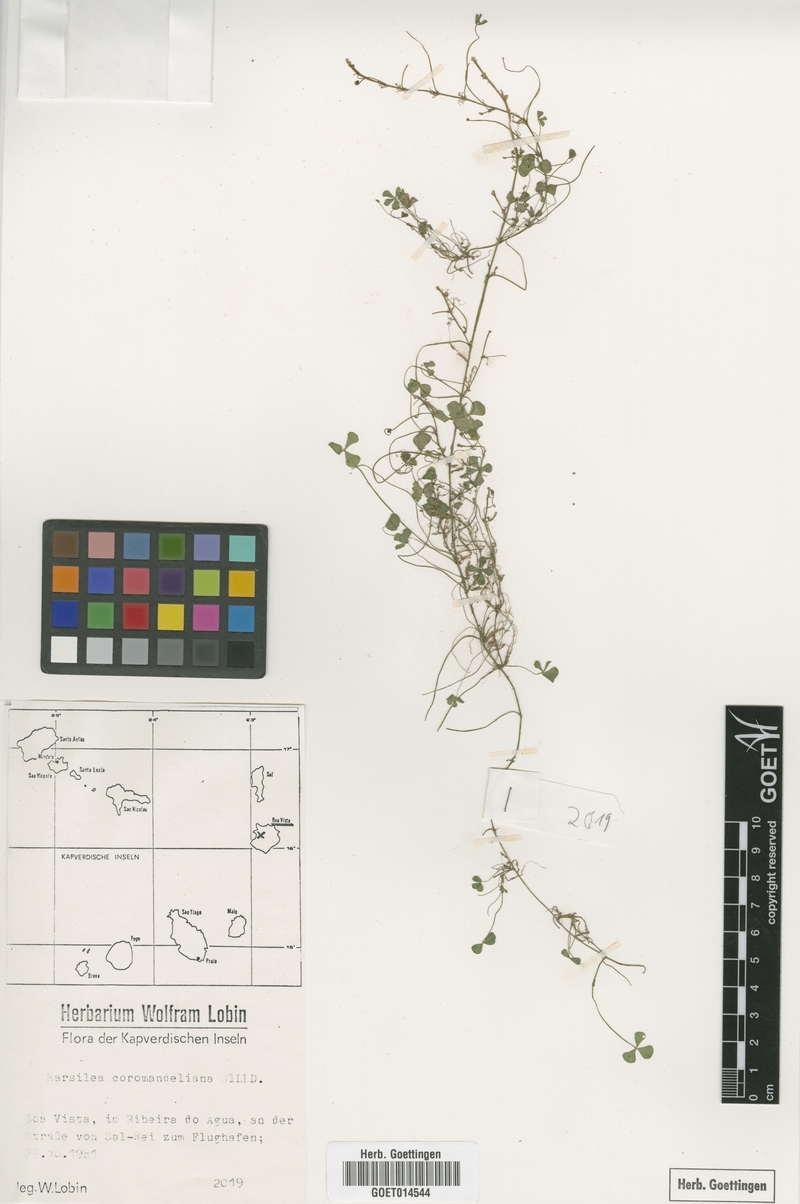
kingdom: Plantae
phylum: Tracheophyta
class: Polypodiopsida
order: Salviniales
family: Marsileaceae
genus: Marsilea
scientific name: Marsilea coromandeliana
